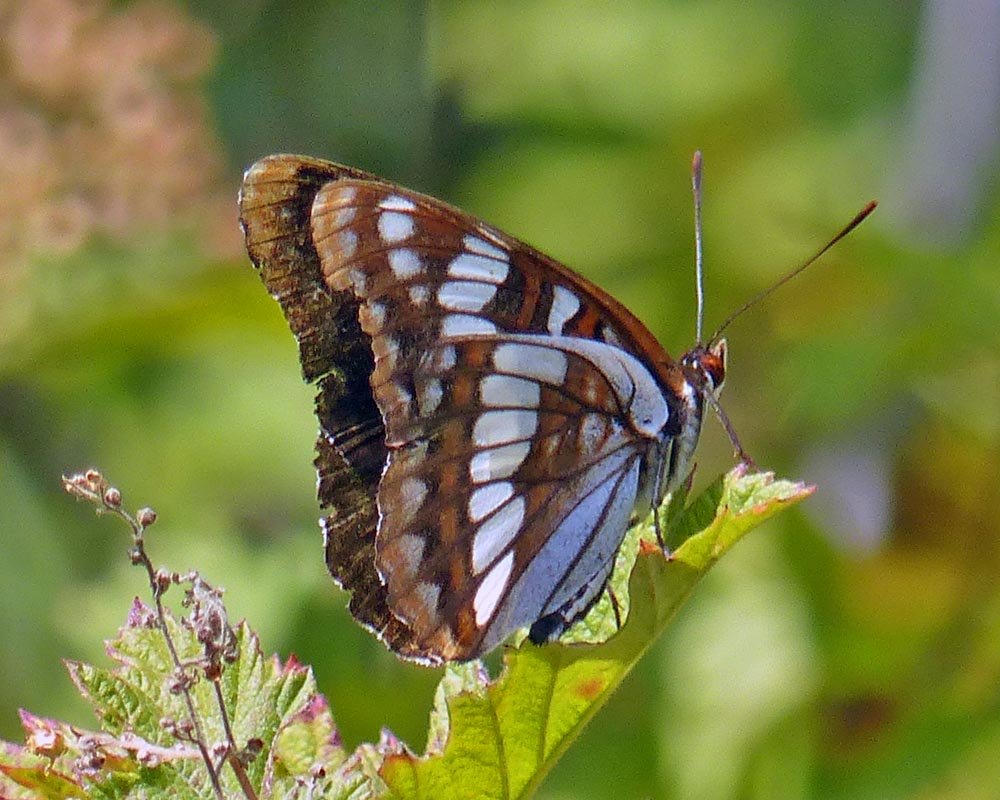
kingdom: Animalia
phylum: Arthropoda
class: Insecta
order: Lepidoptera
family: Nymphalidae
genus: Limenitis
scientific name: Limenitis lorquini
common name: Lorquin's Admiral
